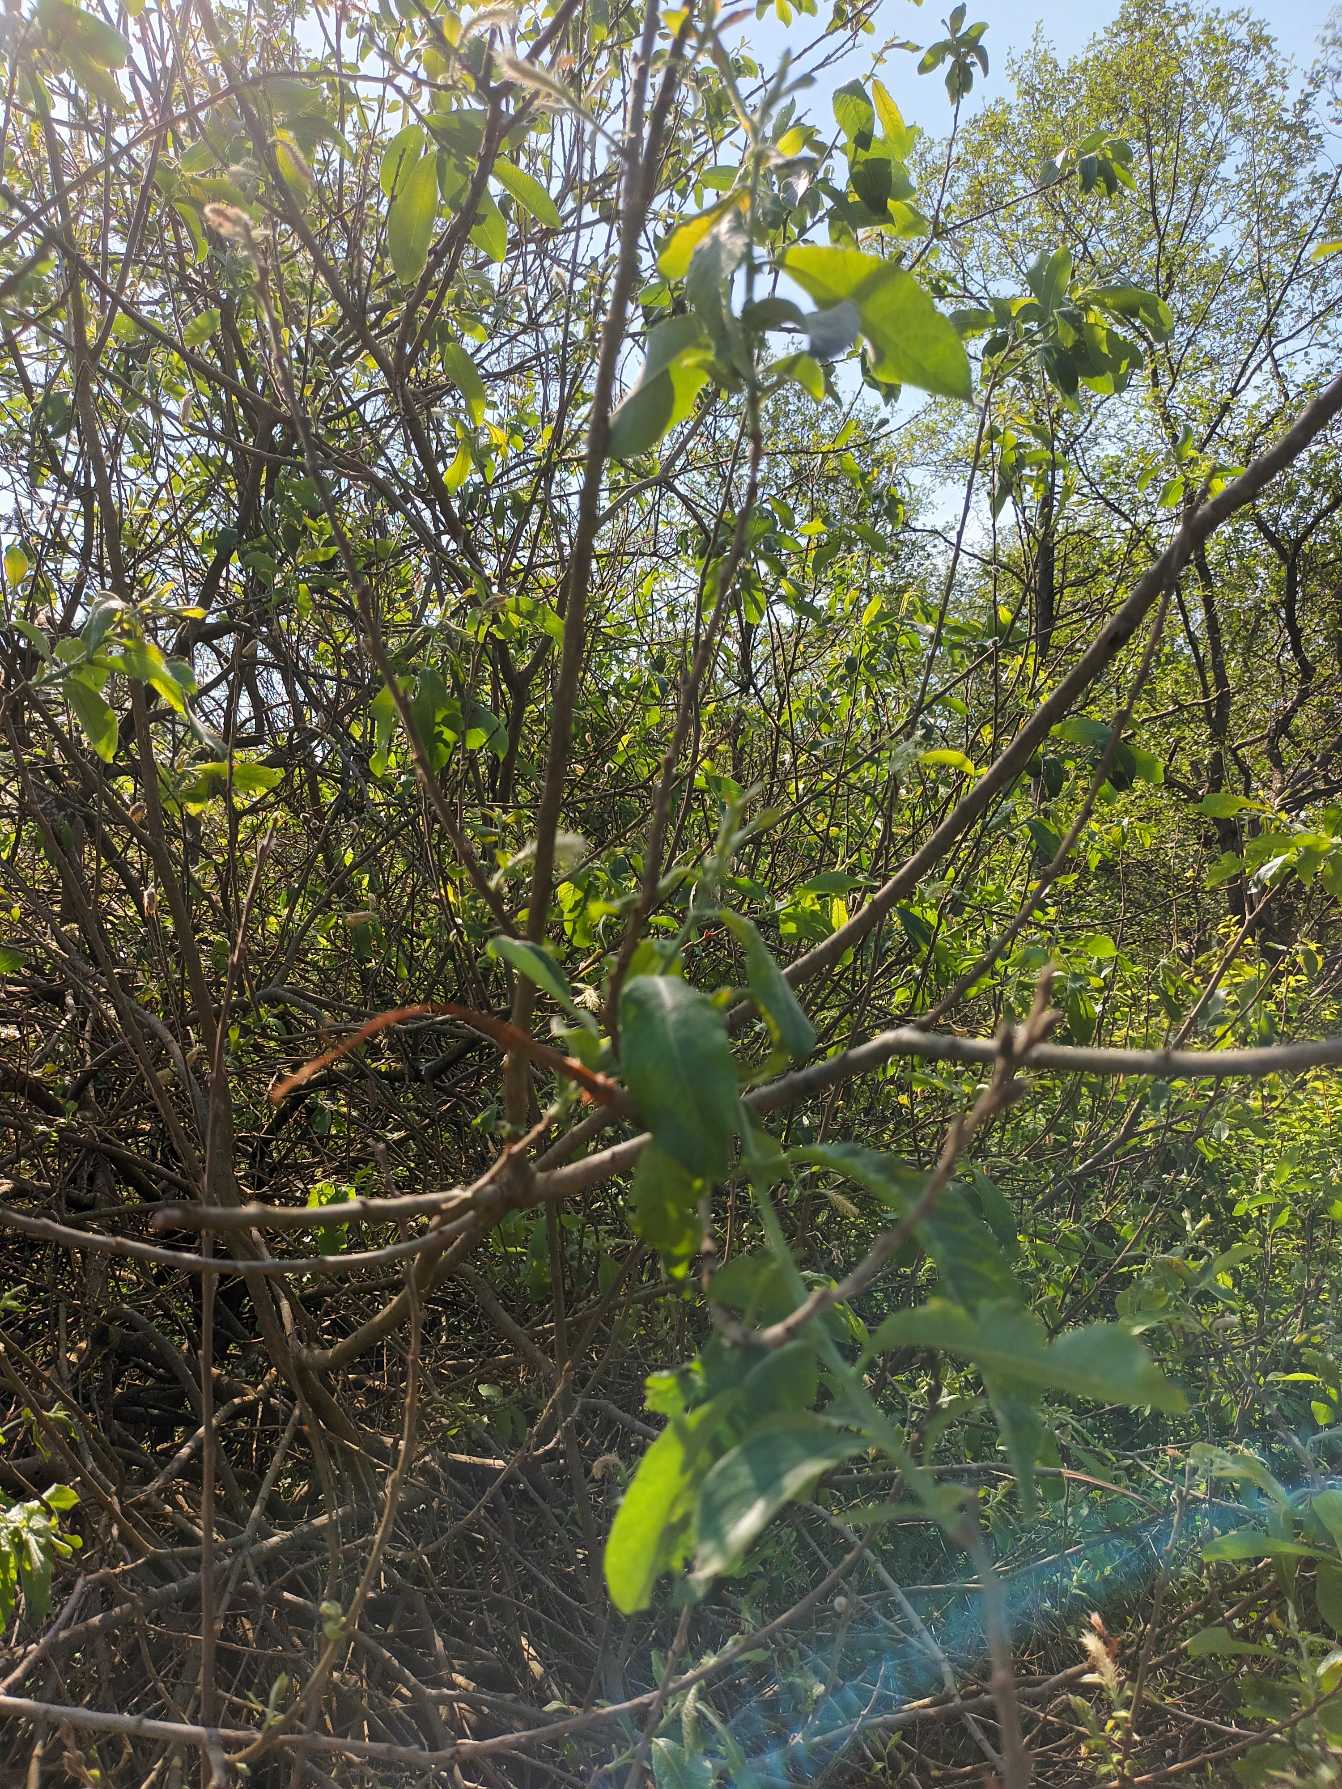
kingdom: Plantae
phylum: Tracheophyta
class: Magnoliopsida
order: Malpighiales
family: Salicaceae
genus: Salix
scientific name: Salix myrsinifolia
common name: Sort pil
